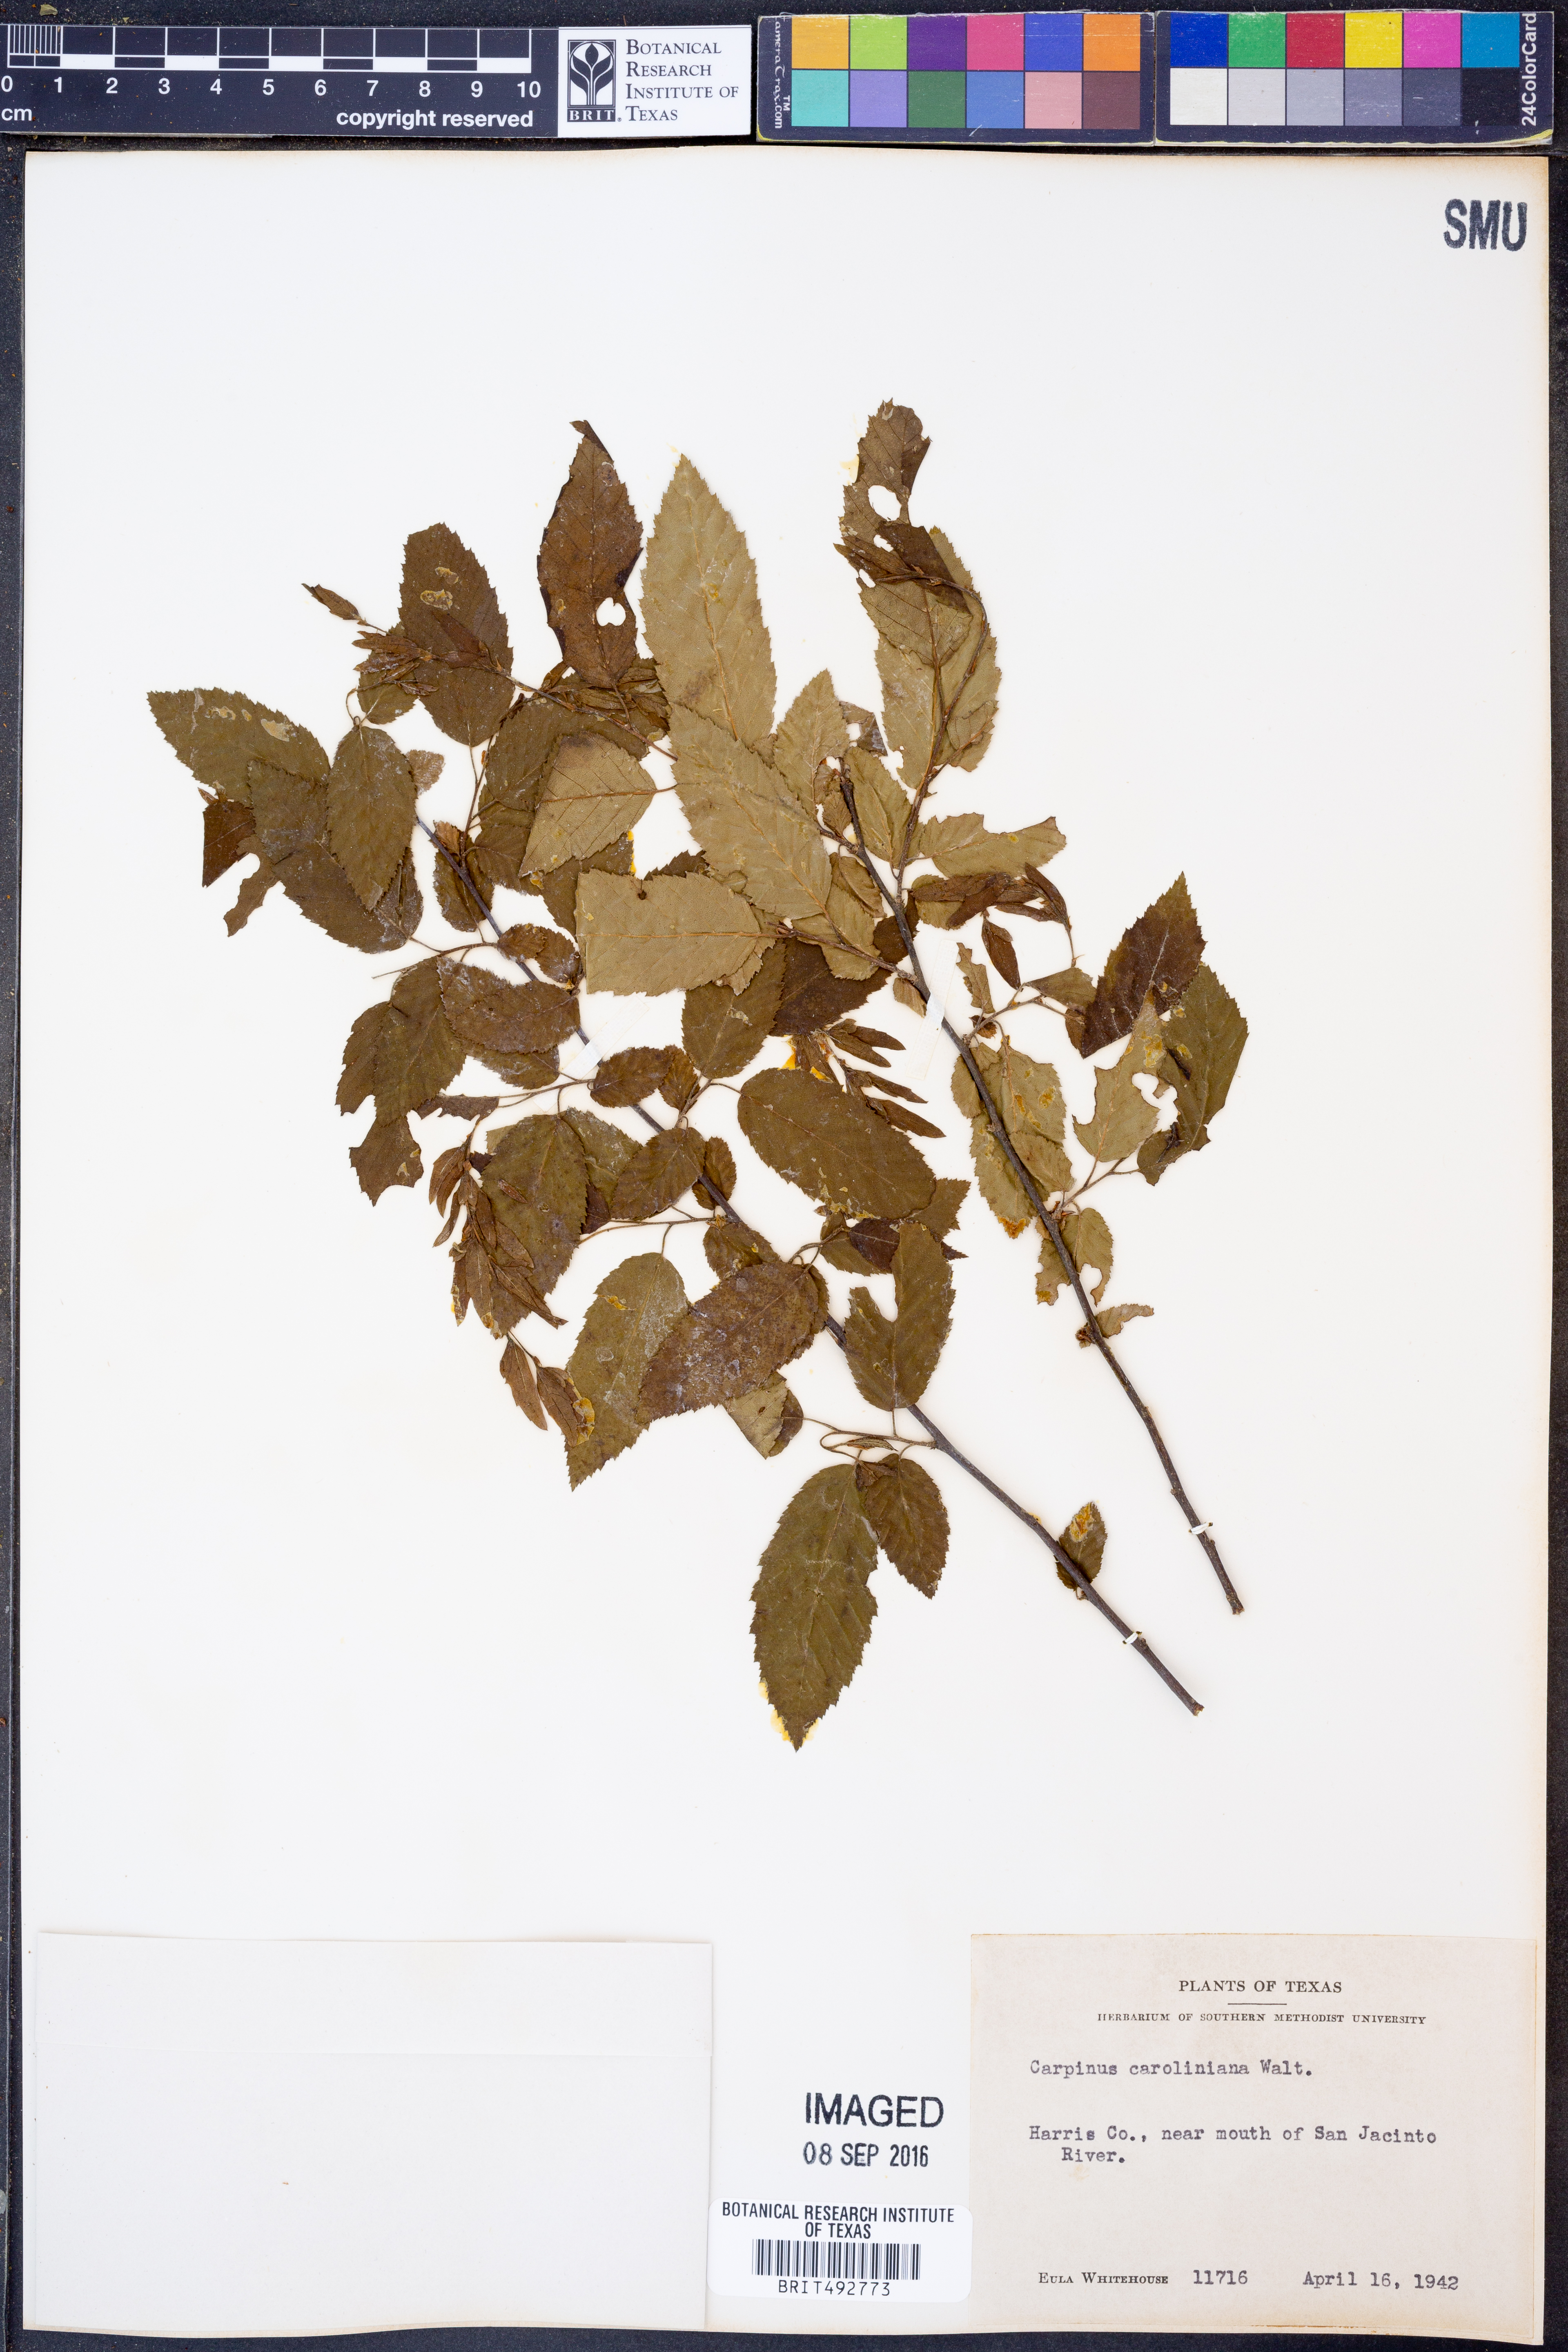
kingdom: Plantae
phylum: Tracheophyta
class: Magnoliopsida
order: Fagales
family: Betulaceae
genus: Carpinus
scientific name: Carpinus caroliniana
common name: American hornbeam
